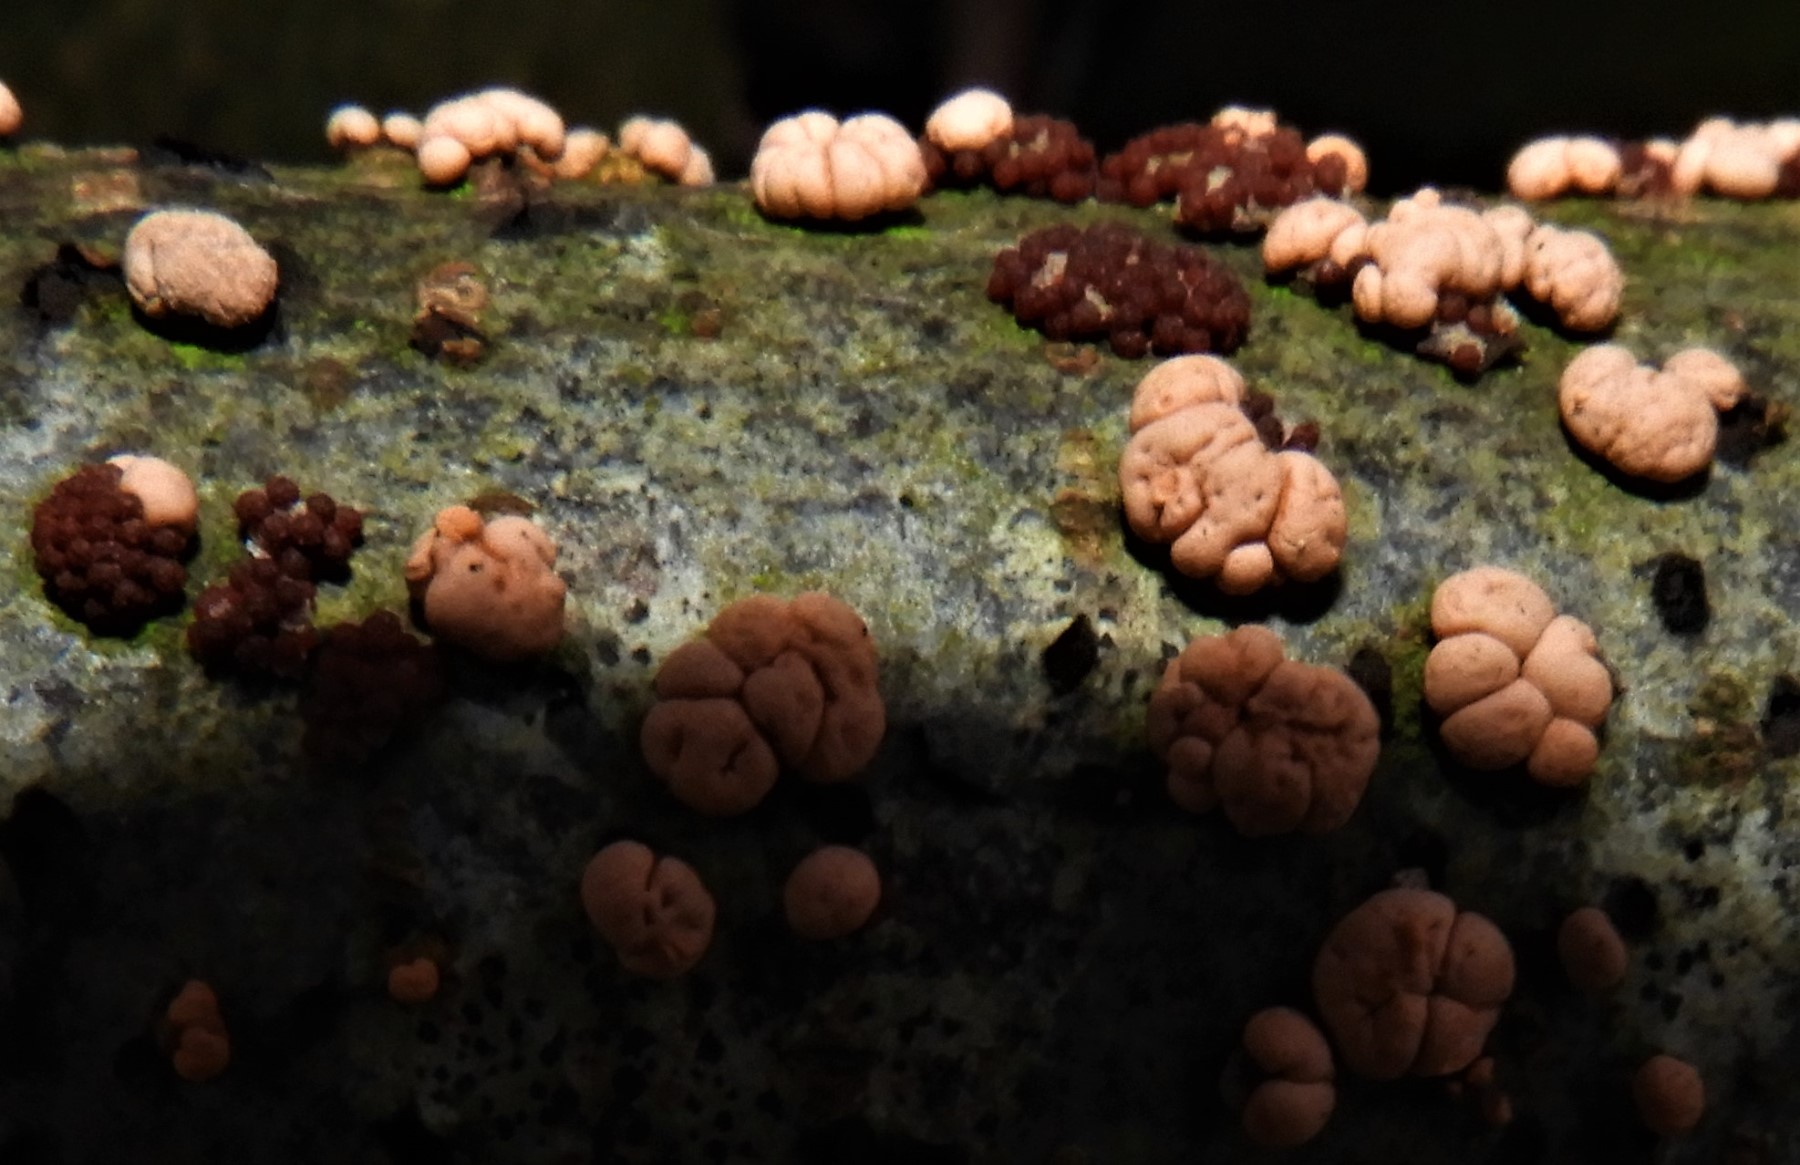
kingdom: Fungi
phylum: Ascomycota
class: Sordariomycetes
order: Hypocreales
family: Nectriaceae
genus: Nectria
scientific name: Nectria cinnabarina
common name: almindelig cinnobersvamp
